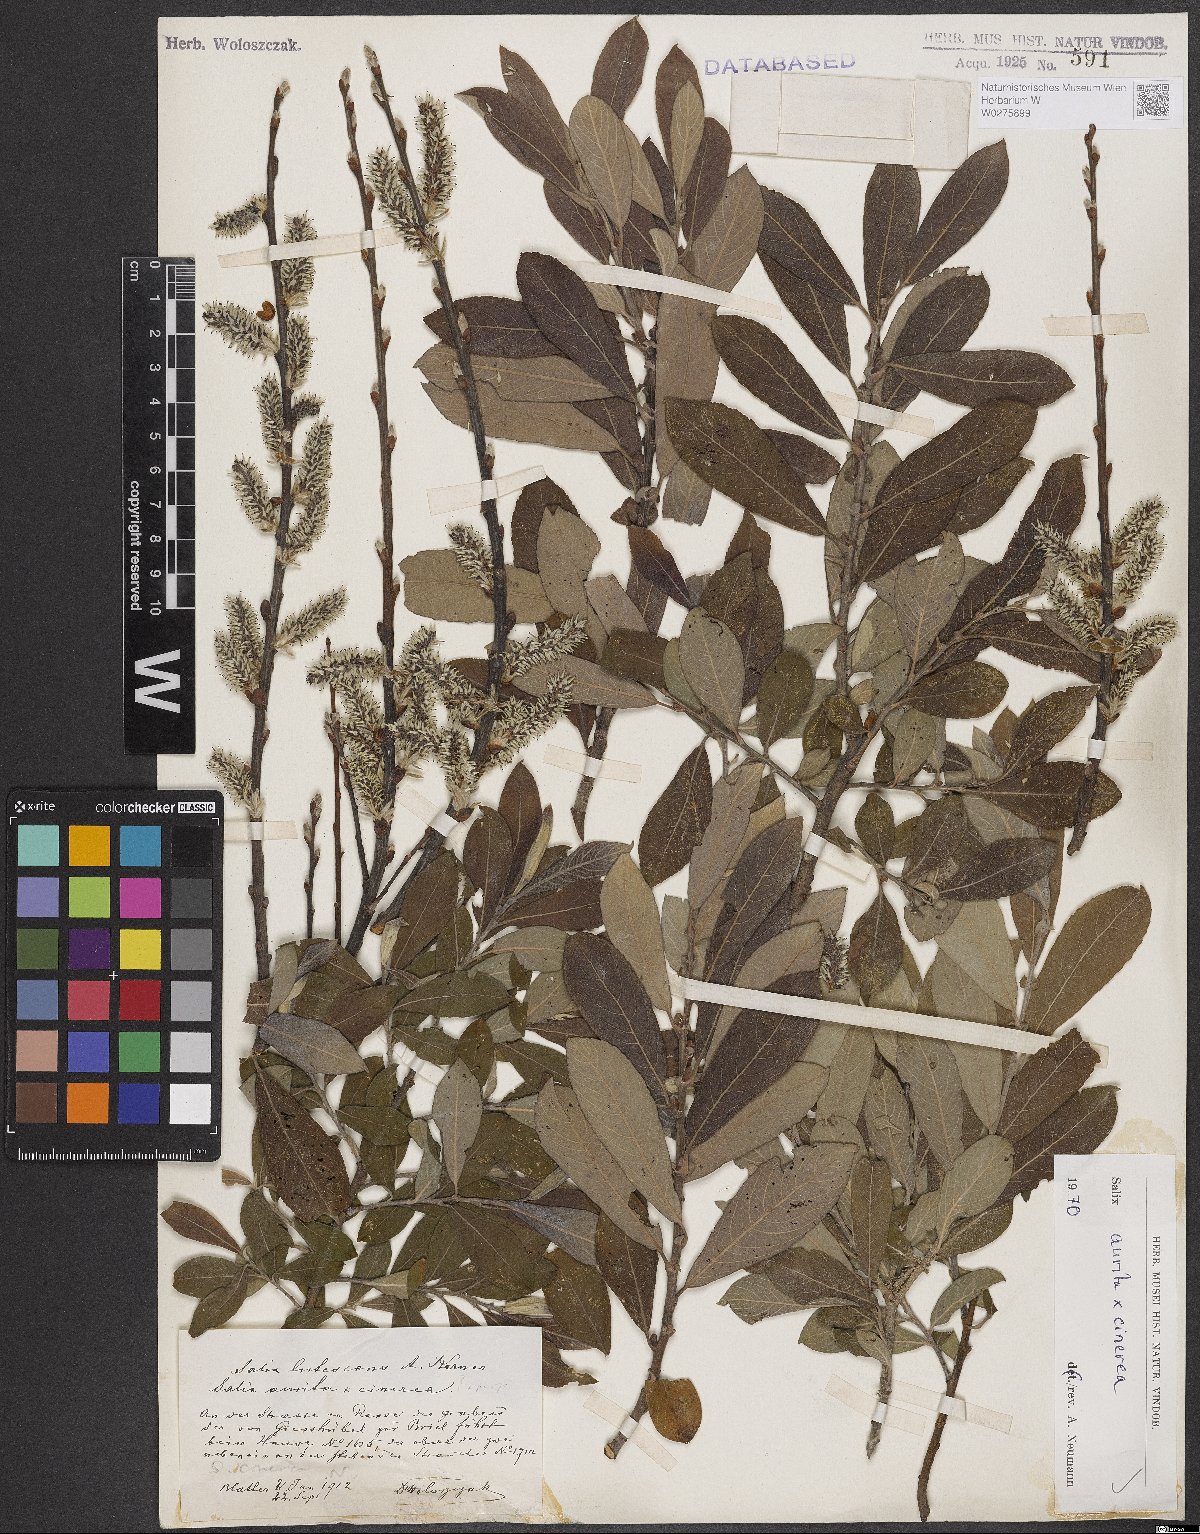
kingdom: Plantae
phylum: Tracheophyta
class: Magnoliopsida
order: Malpighiales
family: Salicaceae
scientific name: Salicaceae
